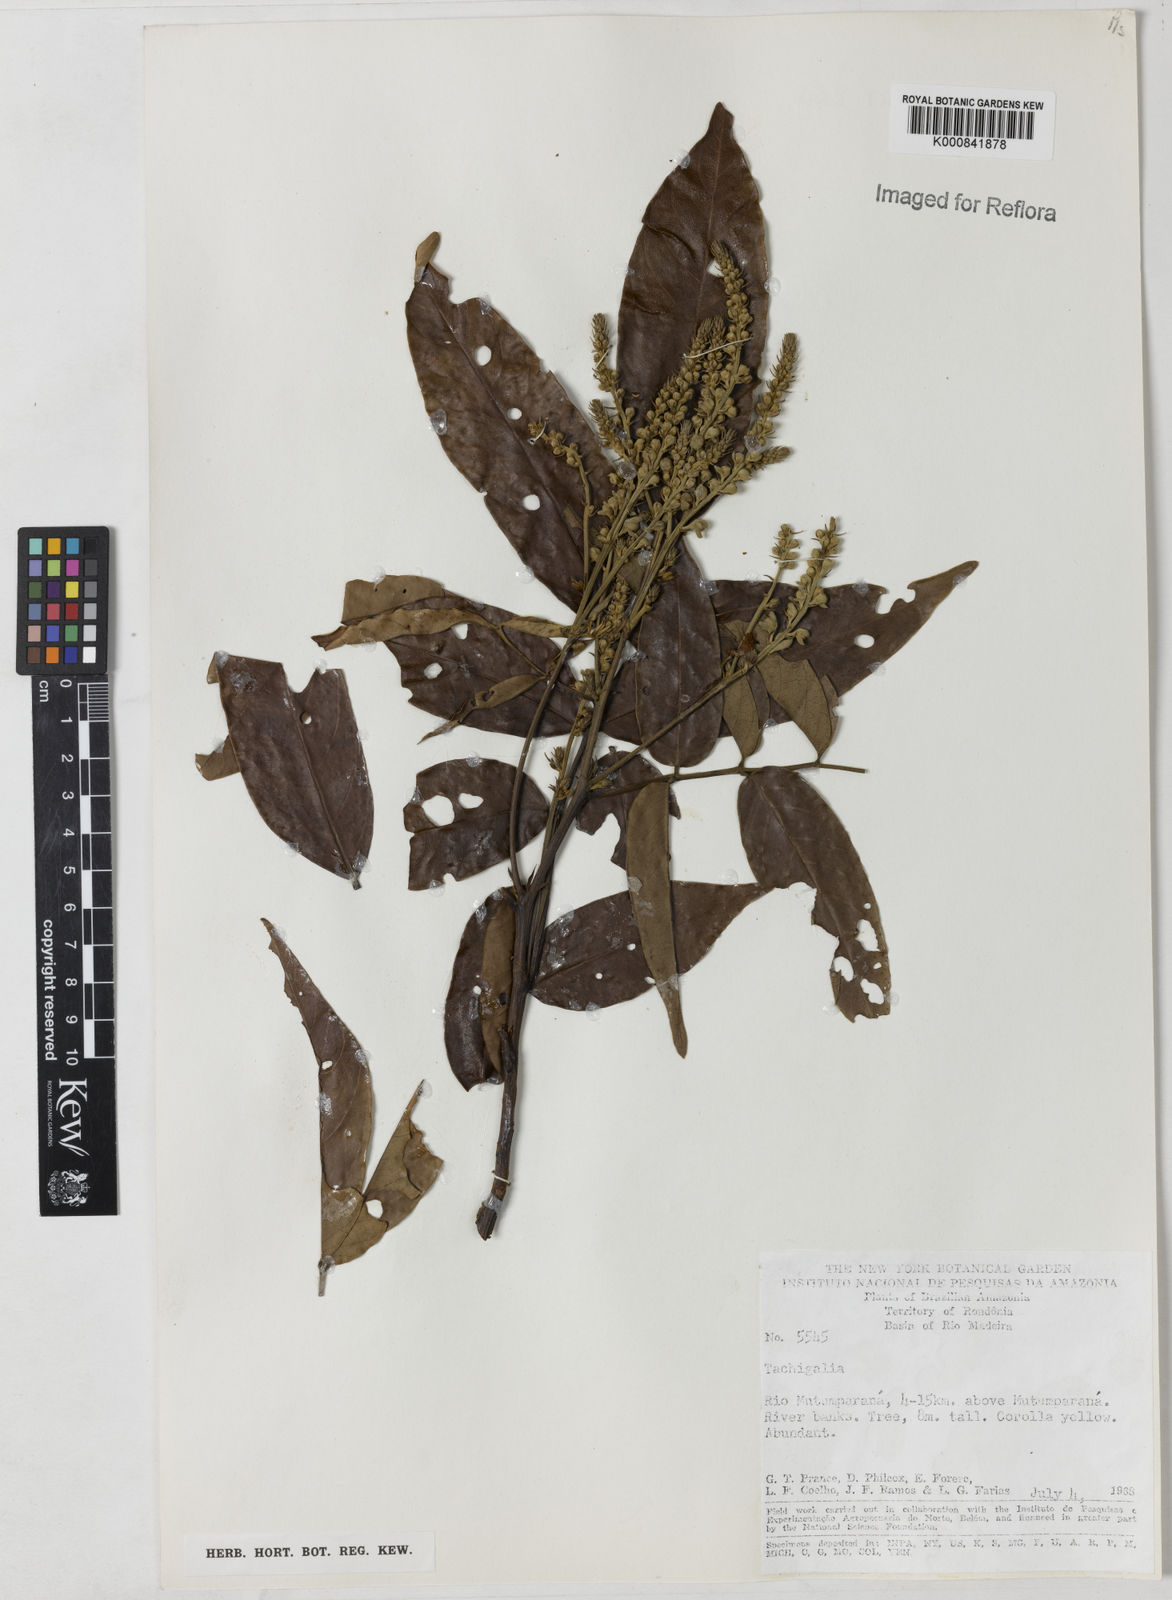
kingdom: Plantae
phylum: Tracheophyta
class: Magnoliopsida
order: Fabales
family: Fabaceae
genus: Tachigali
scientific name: Tachigali
